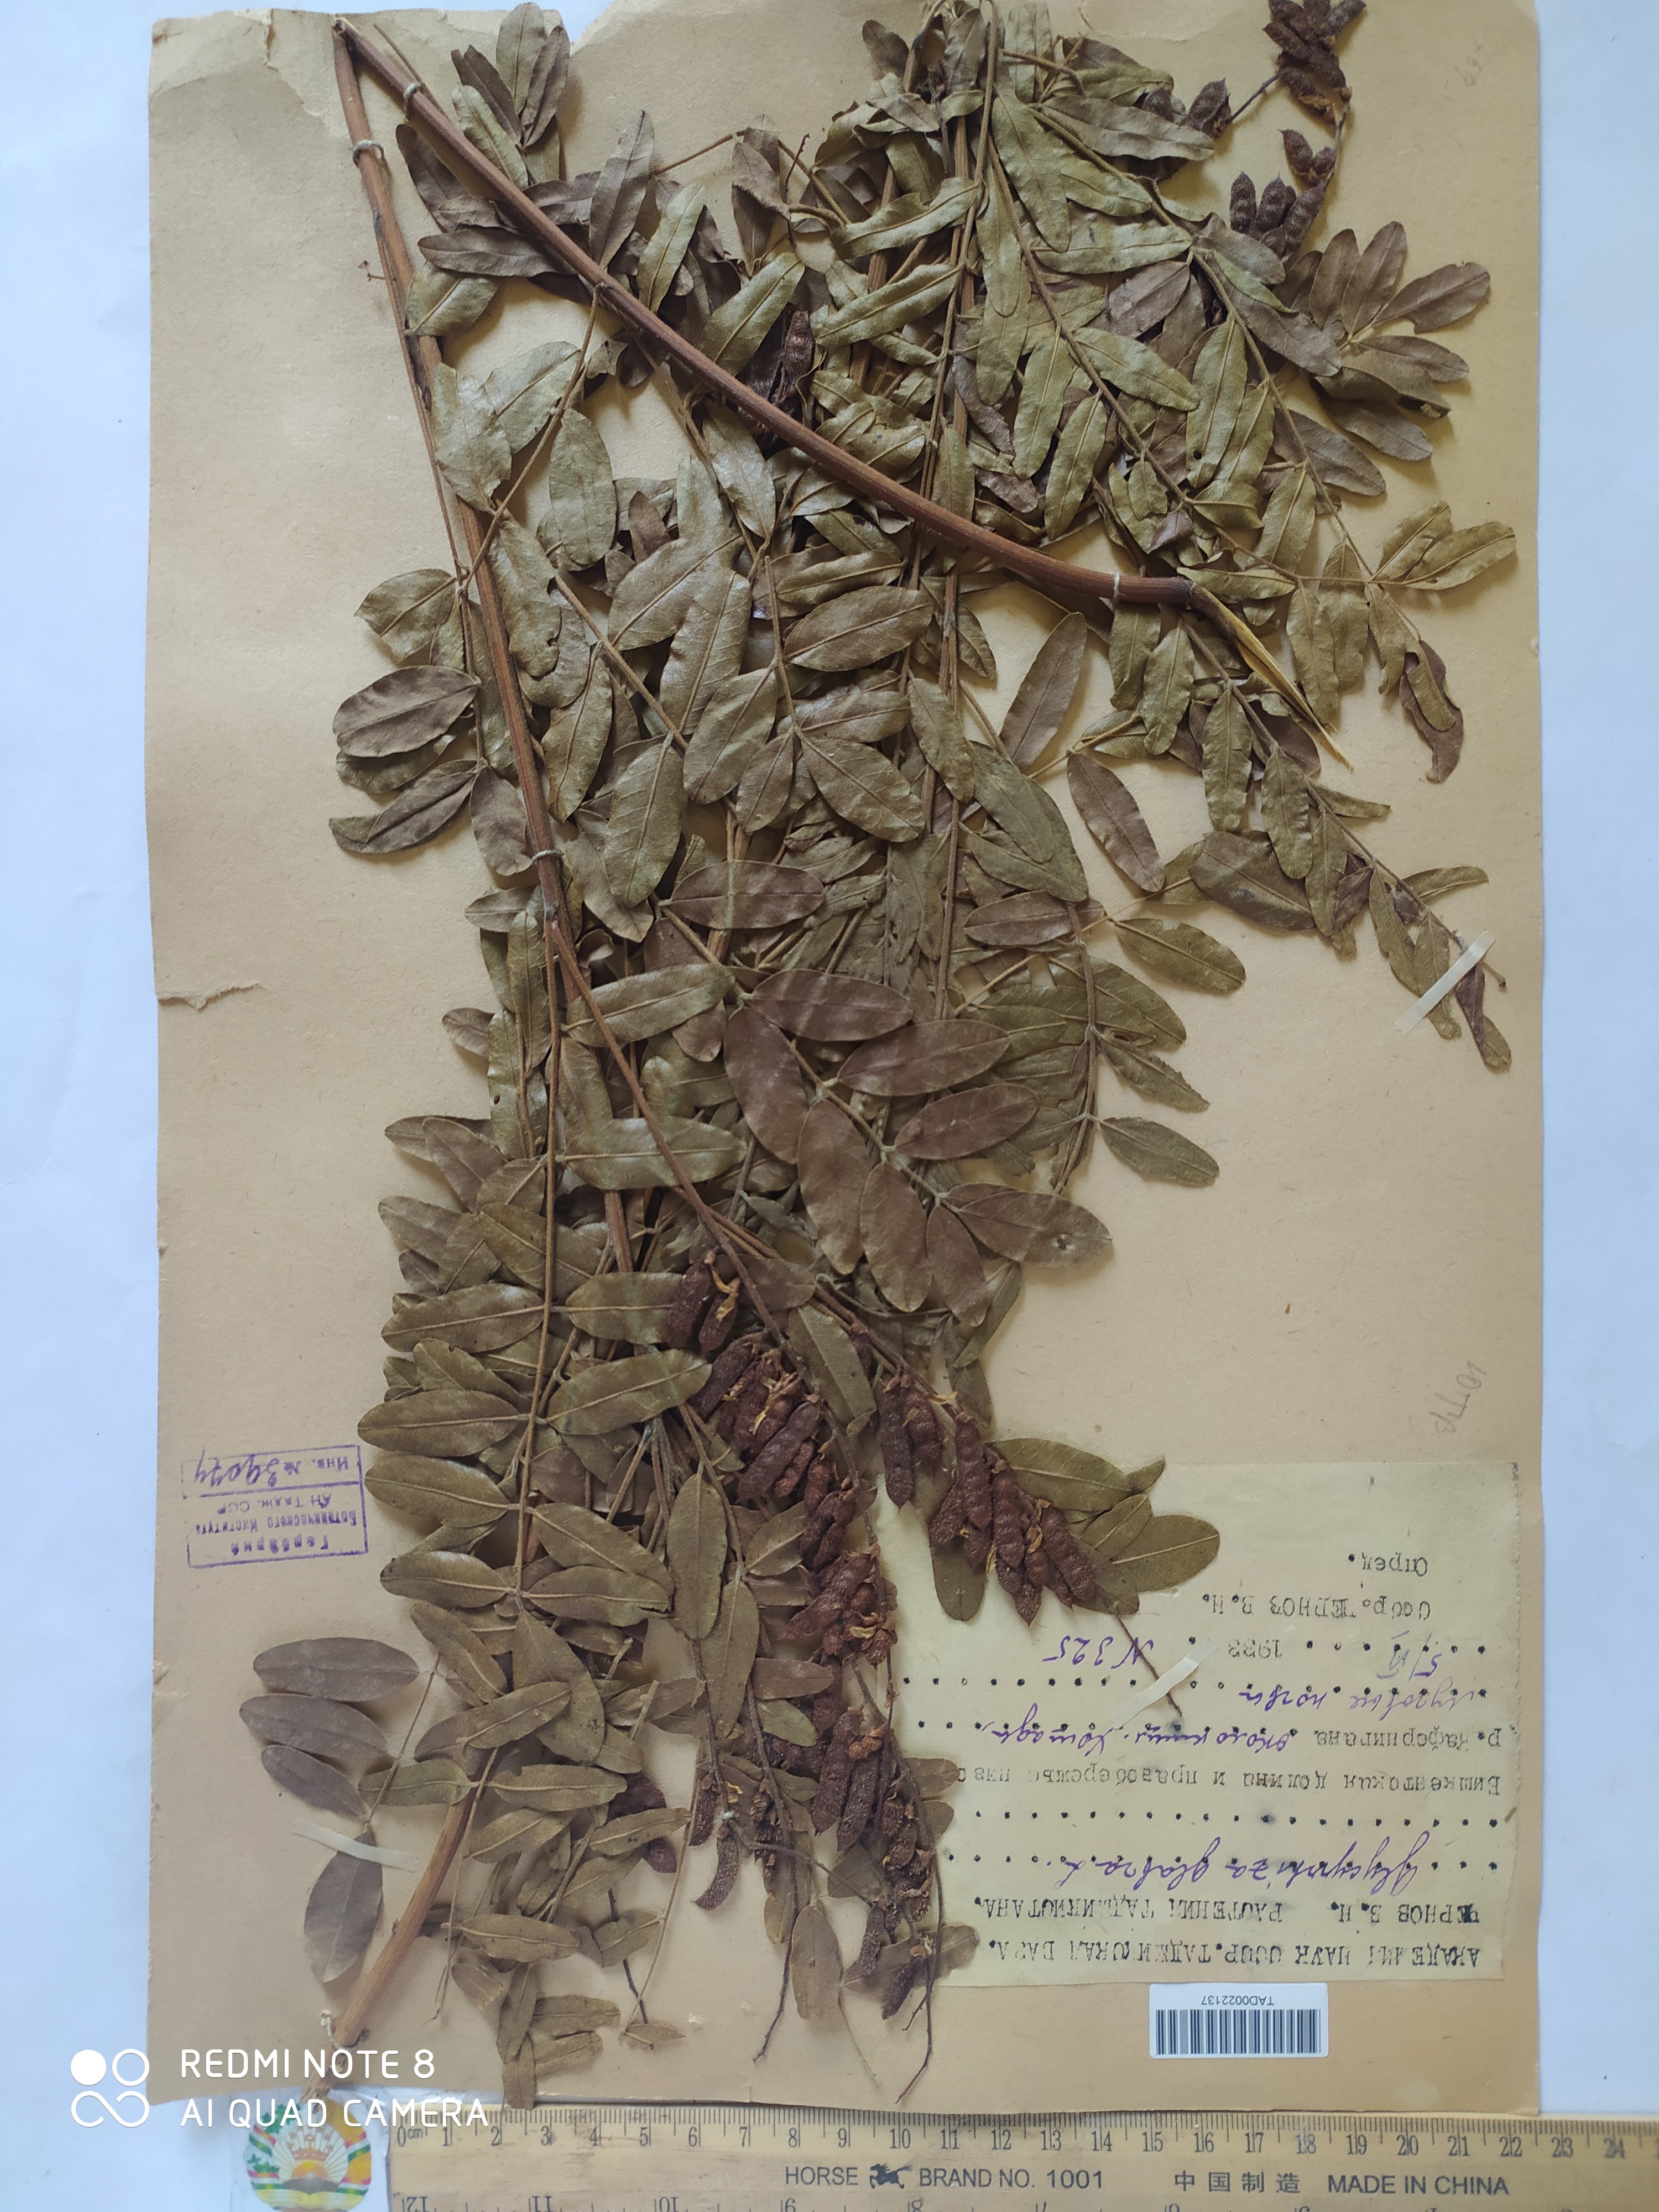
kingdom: Plantae
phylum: Tracheophyta
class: Magnoliopsida
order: Fabales
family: Fabaceae
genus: Glycyrrhiza
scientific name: Glycyrrhiza glabra
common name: Liquorice
